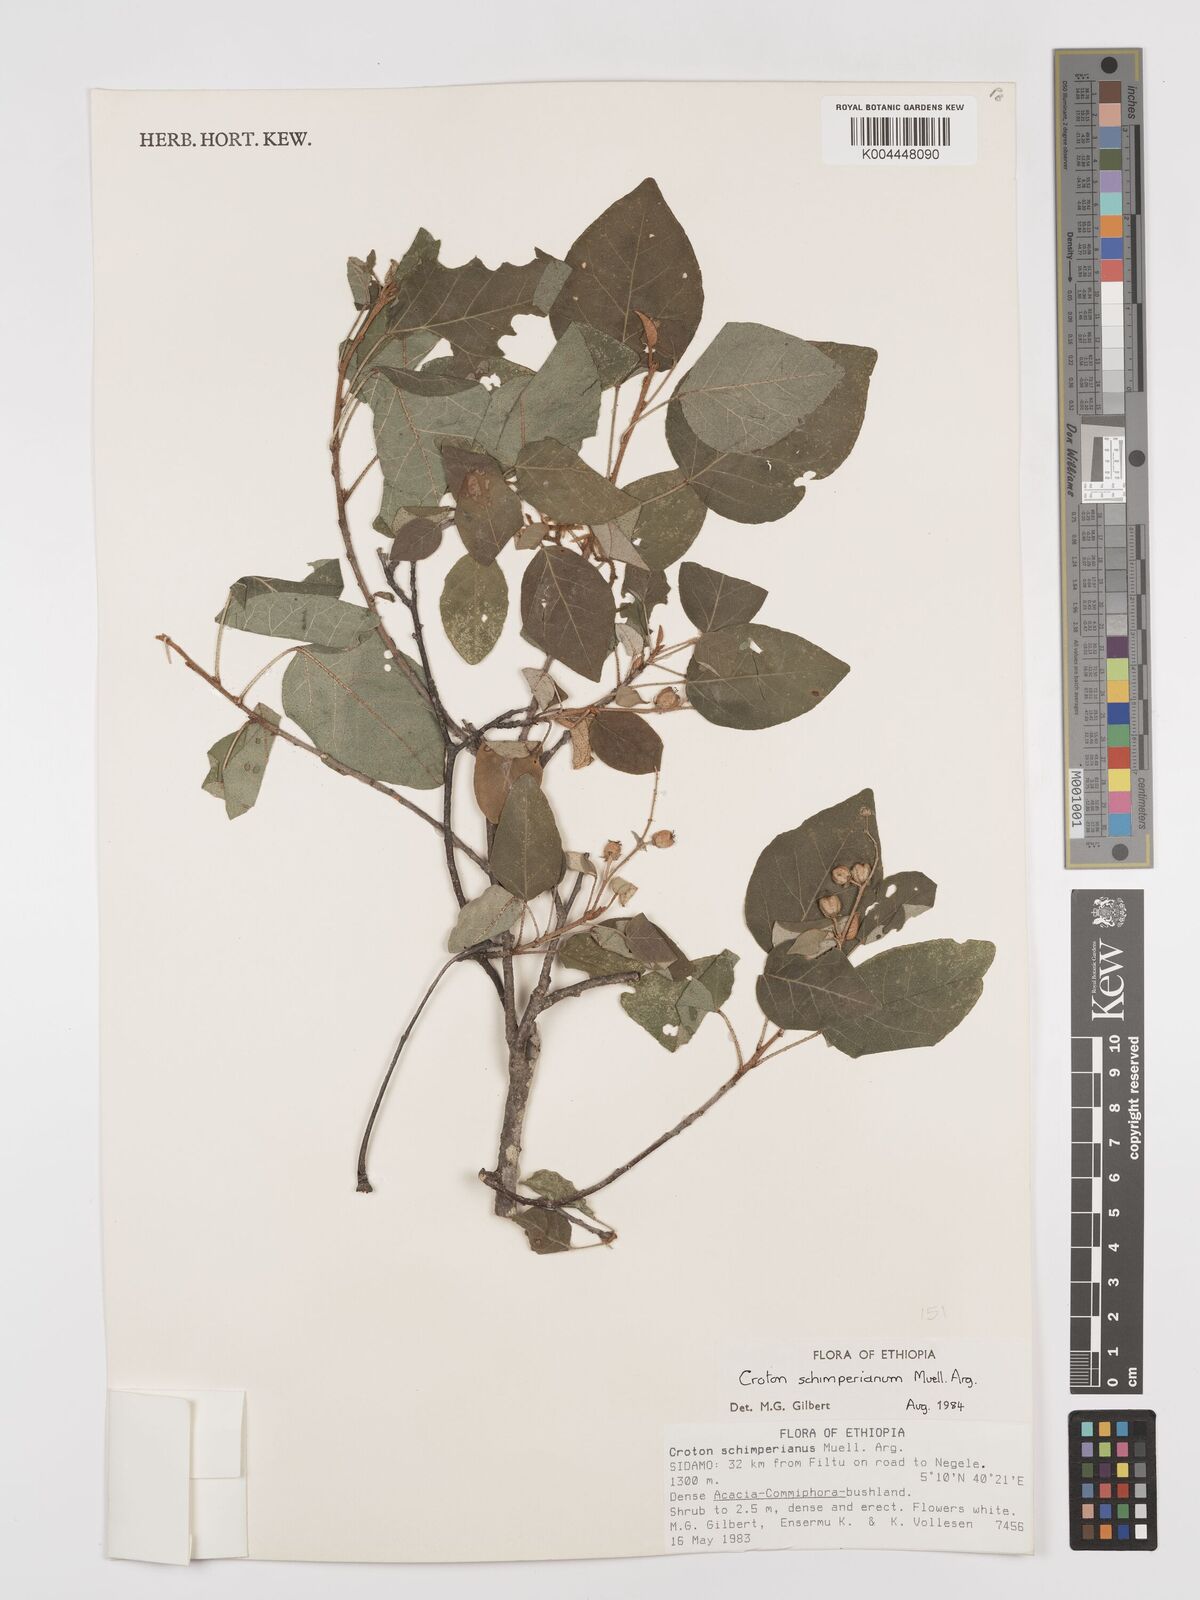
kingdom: Plantae
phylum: Tracheophyta
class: Magnoliopsida
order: Malpighiales
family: Euphorbiaceae
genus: Croton
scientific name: Croton schimperianus
